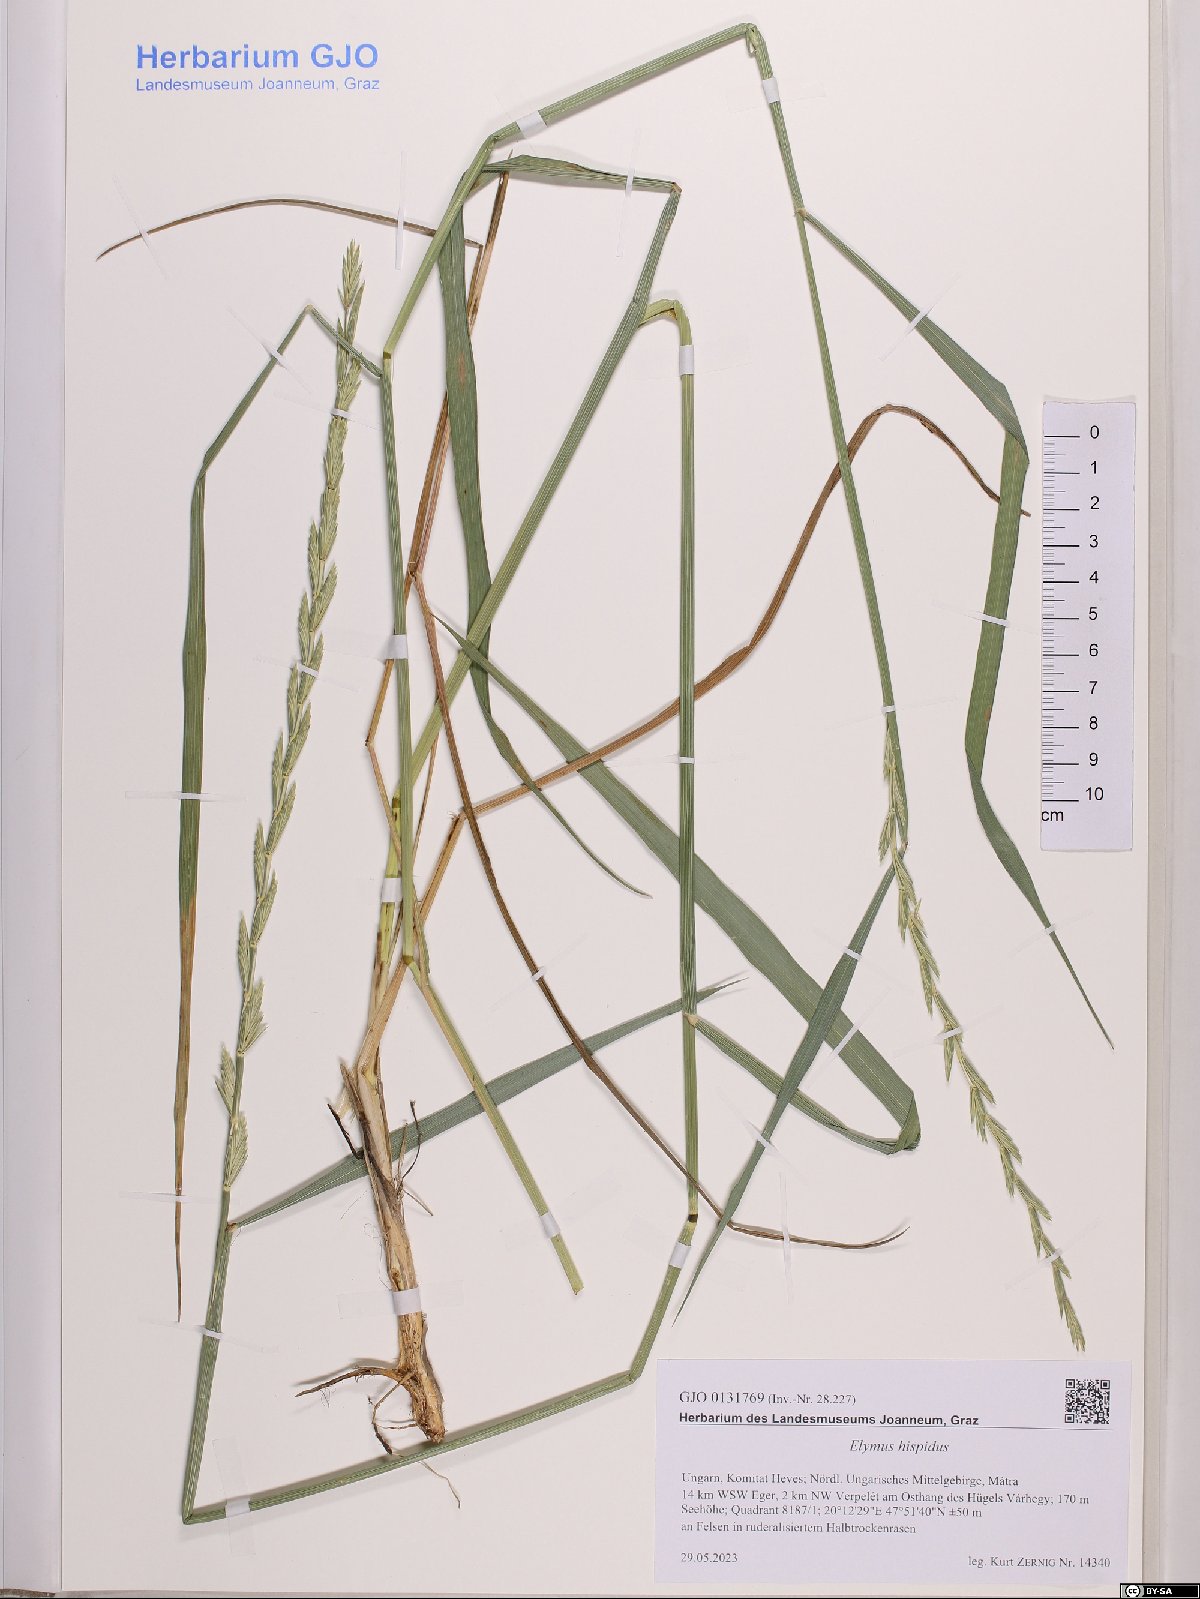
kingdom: Plantae
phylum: Tracheophyta
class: Liliopsida
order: Poales
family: Poaceae
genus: Thinopyrum
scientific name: Thinopyrum intermedium
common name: Intermediate wheatgrass
